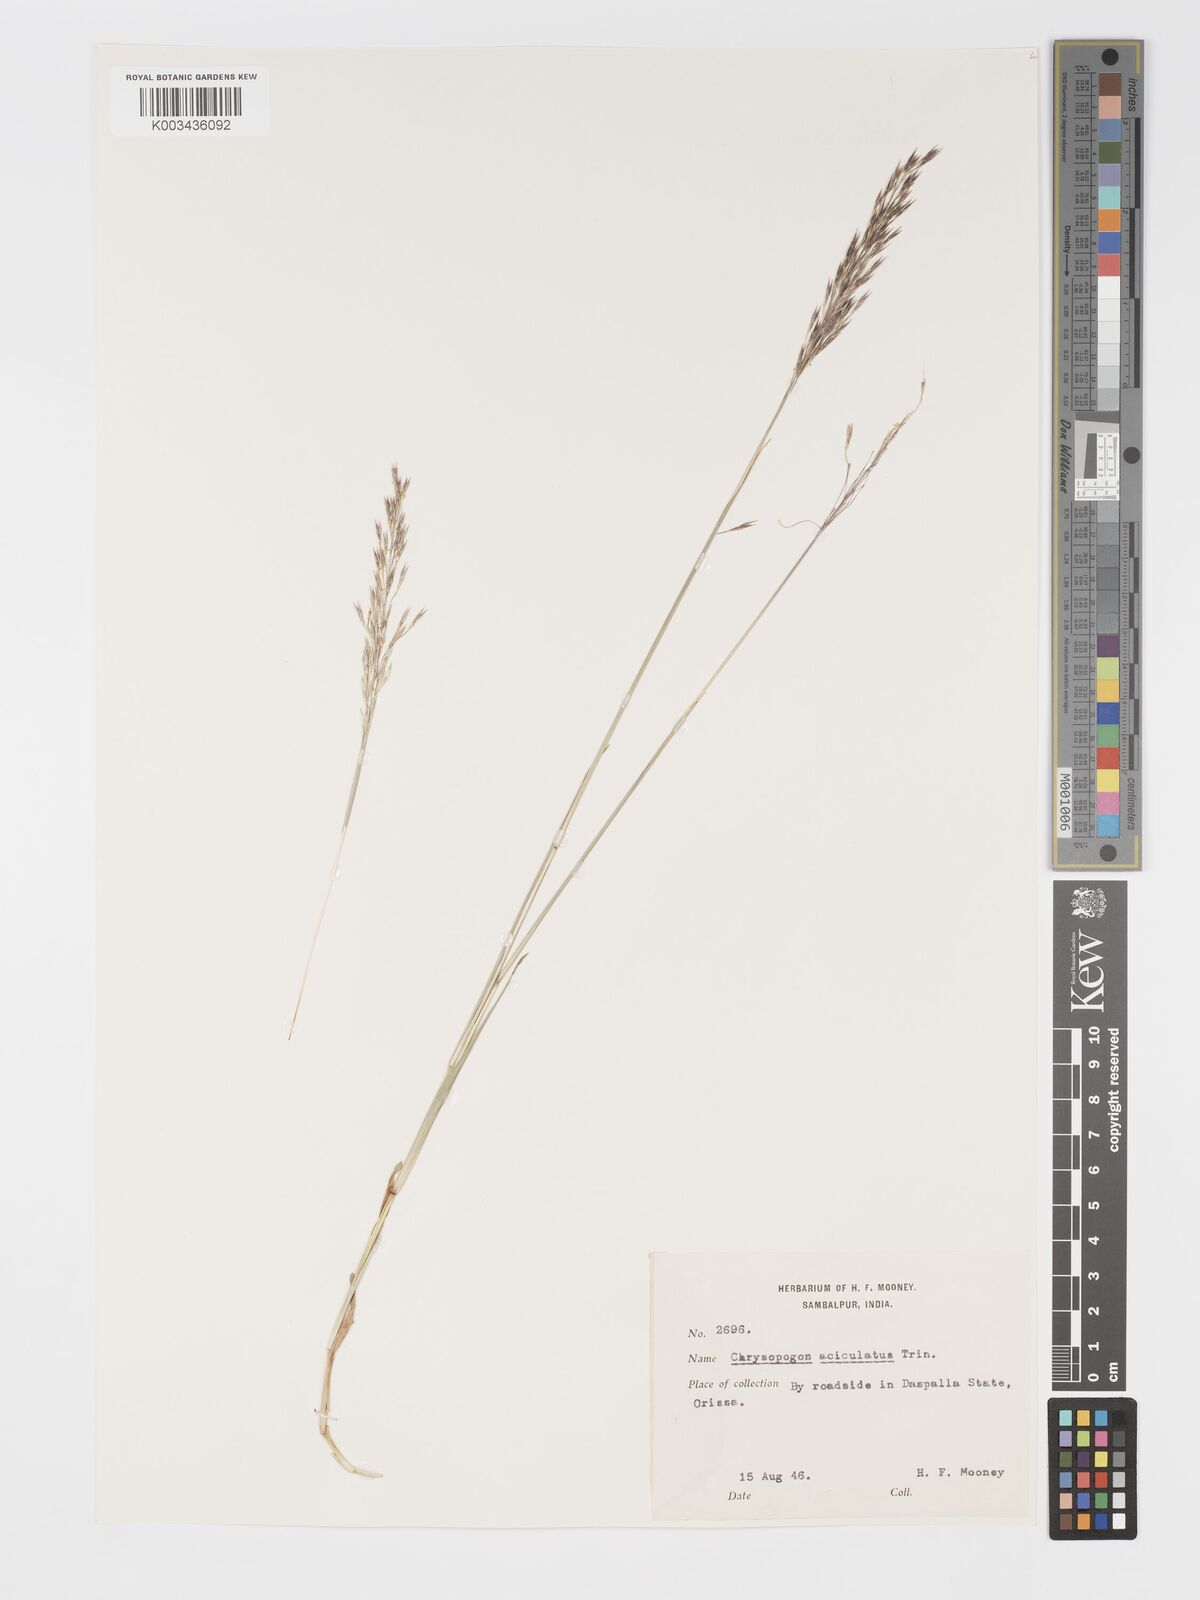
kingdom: Plantae
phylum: Tracheophyta
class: Liliopsida
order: Poales
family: Poaceae
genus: Chrysopogon
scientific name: Chrysopogon aciculatus
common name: Pilipiliula
